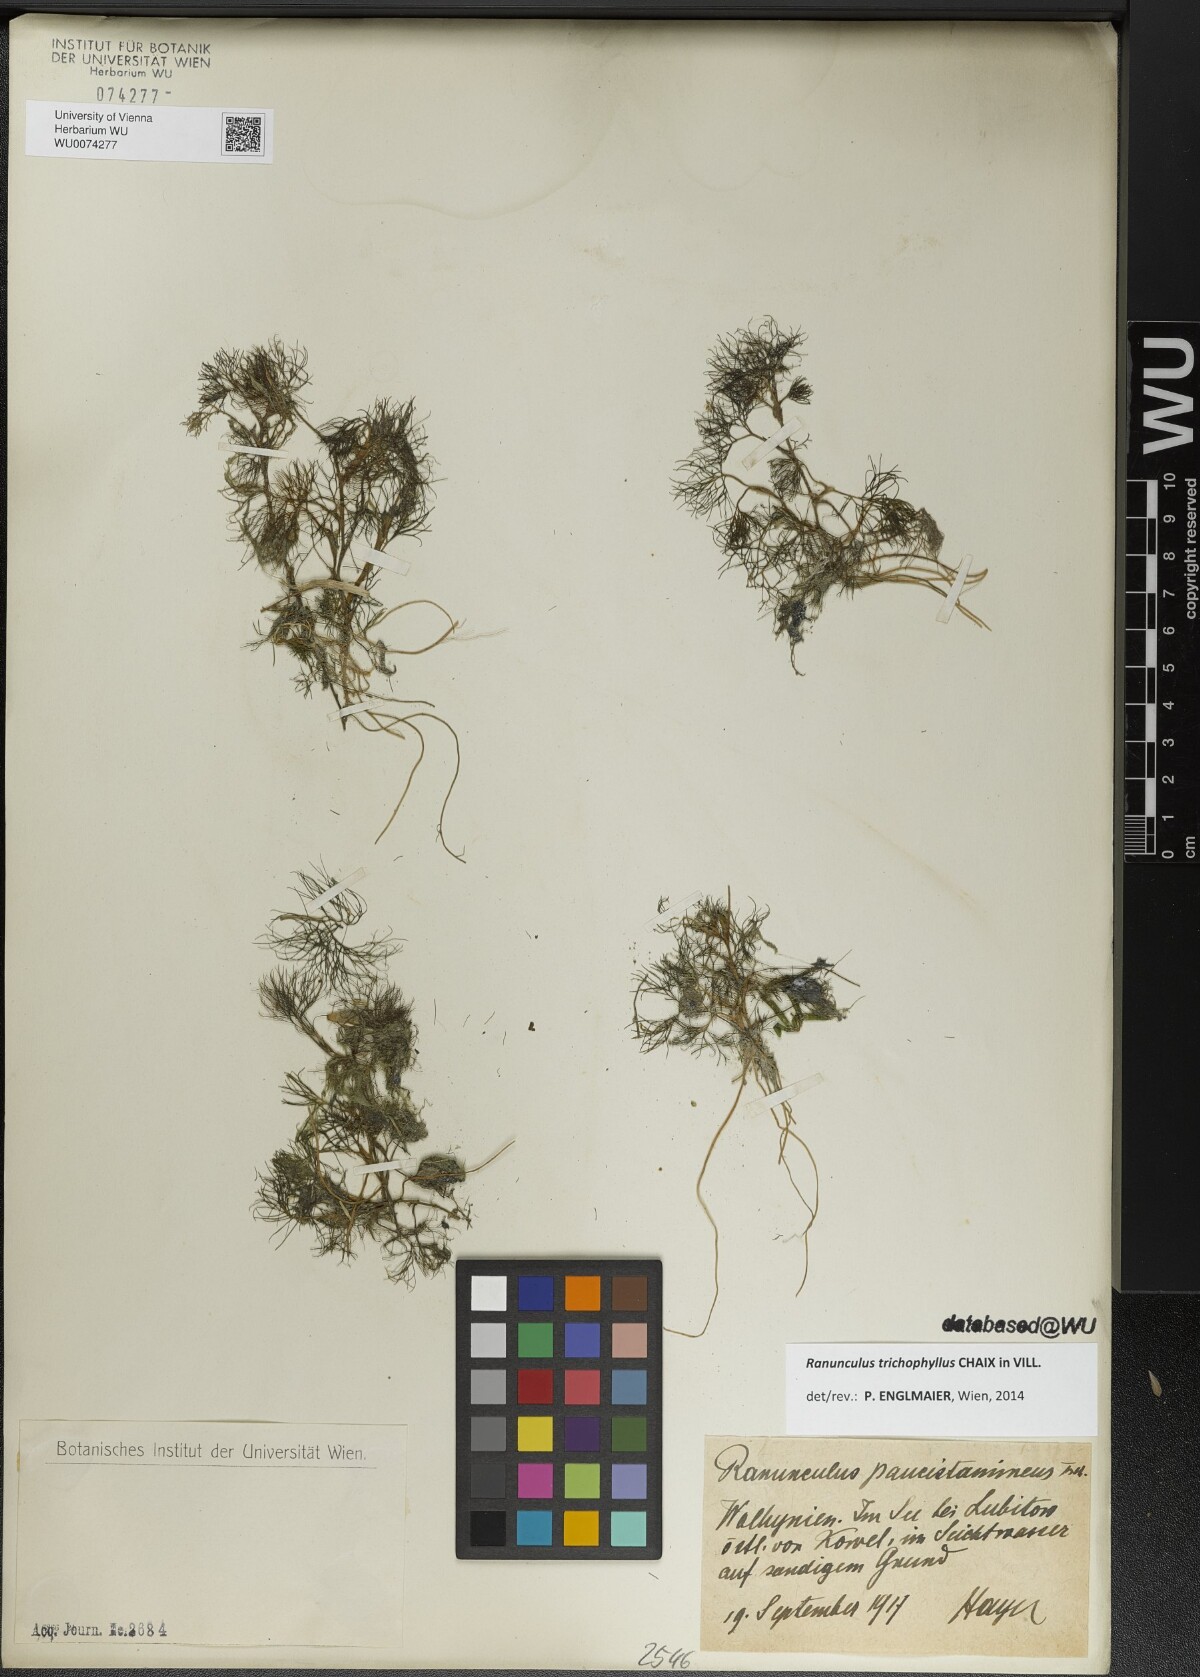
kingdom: Plantae
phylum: Tracheophyta
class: Magnoliopsida
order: Ranunculales
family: Ranunculaceae
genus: Ranunculus
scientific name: Ranunculus trichophyllus
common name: Thread-leaved water-crowfoot
